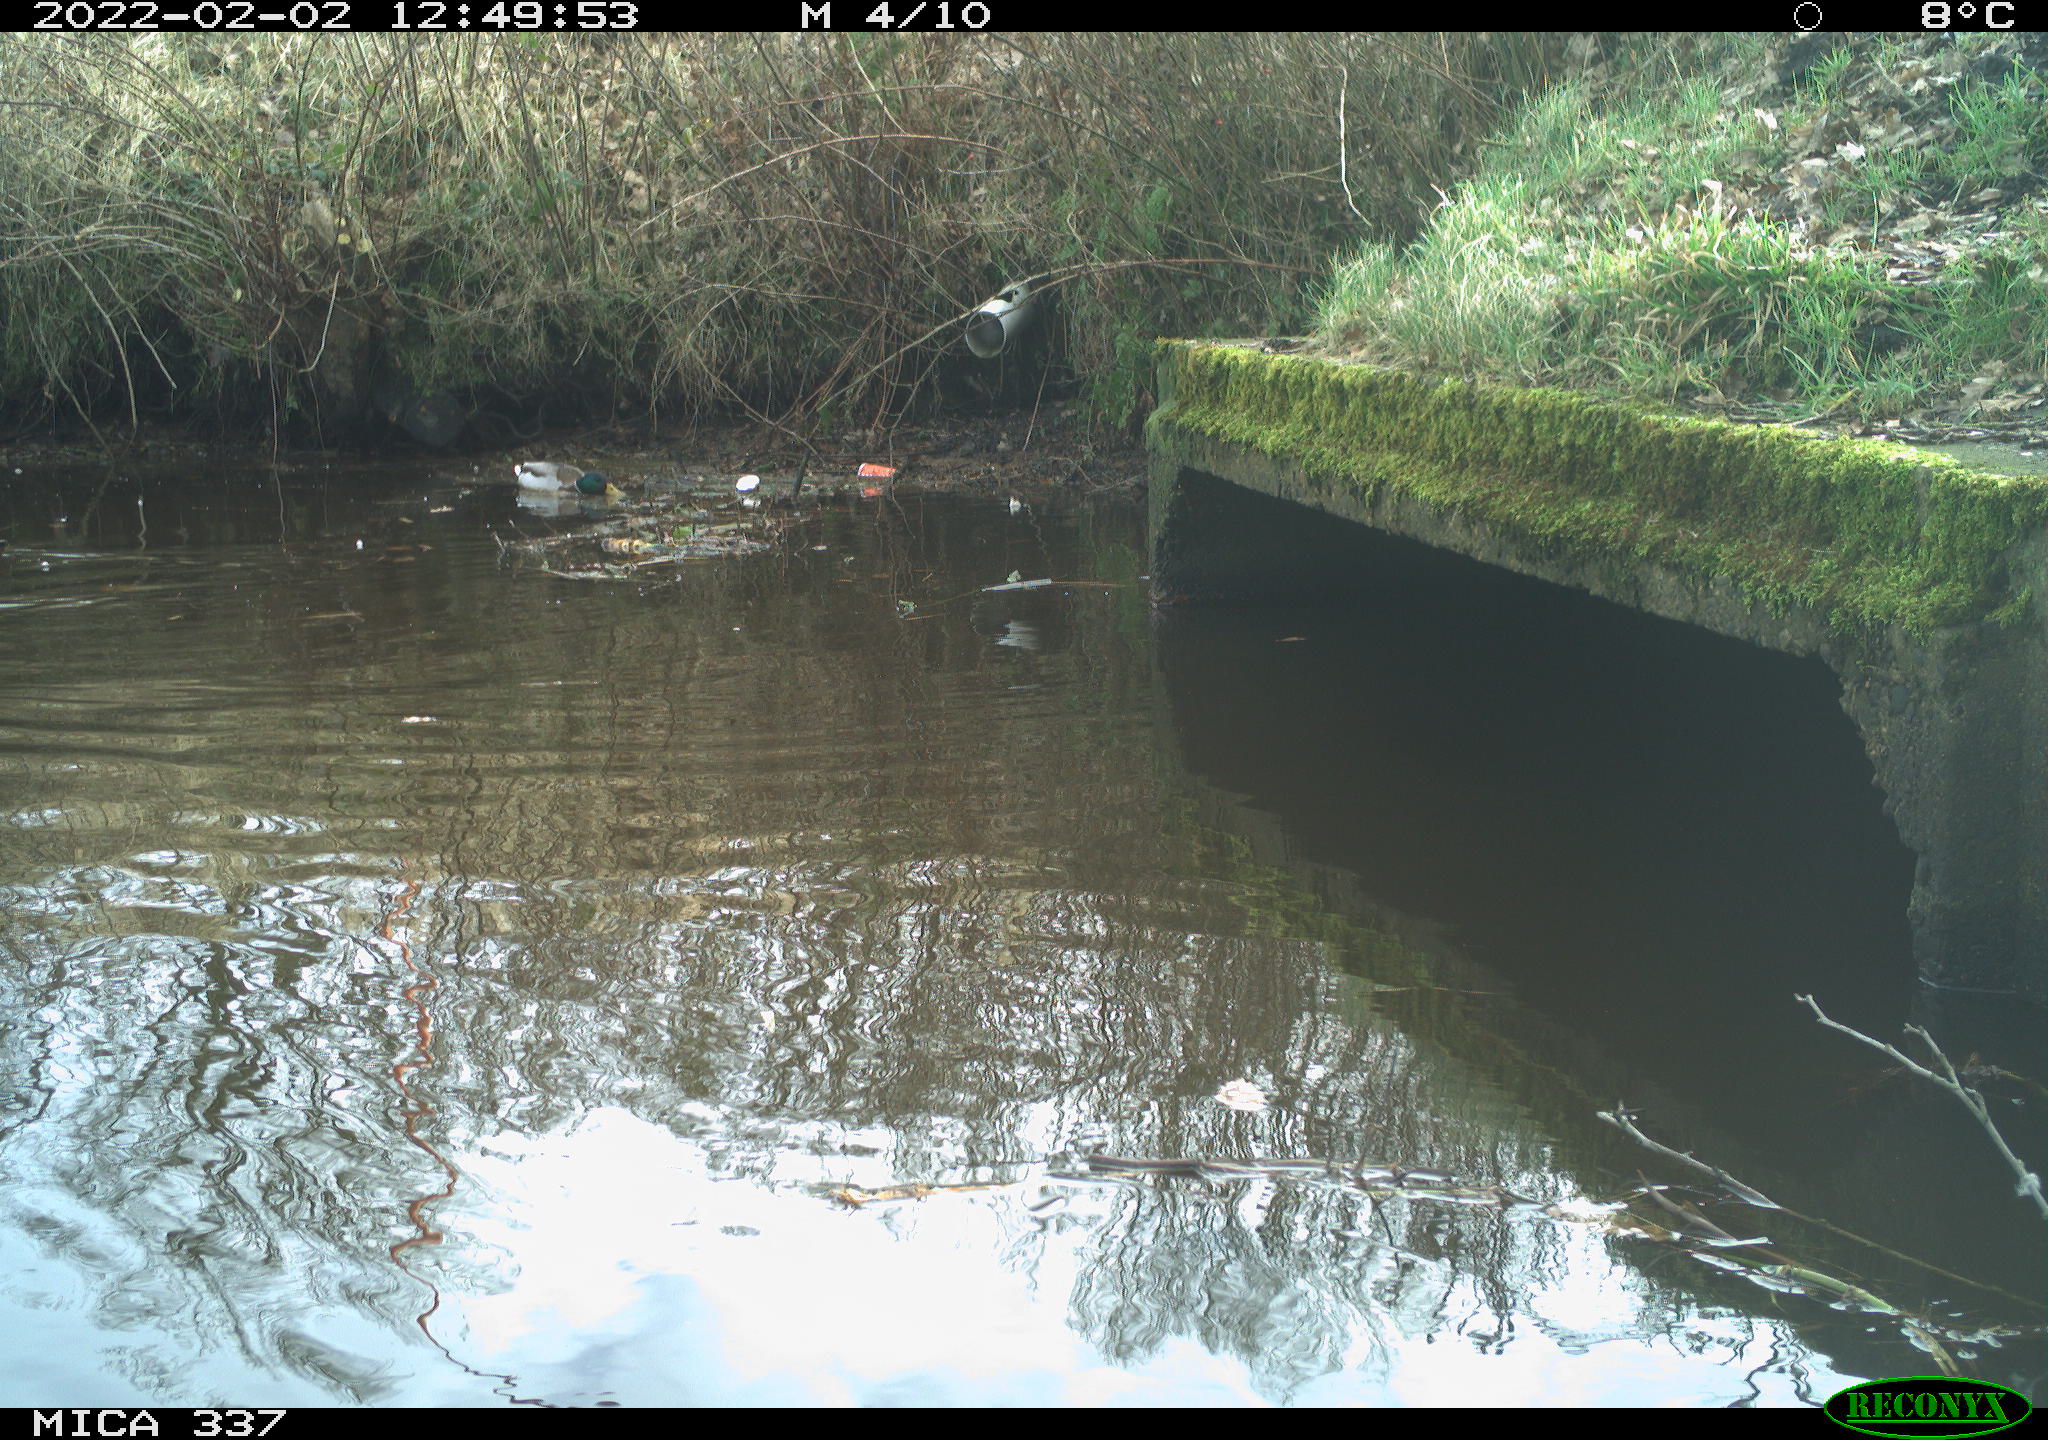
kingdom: Animalia
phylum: Chordata
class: Aves
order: Anseriformes
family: Anatidae
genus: Anas
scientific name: Anas platyrhynchos
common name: Mallard
